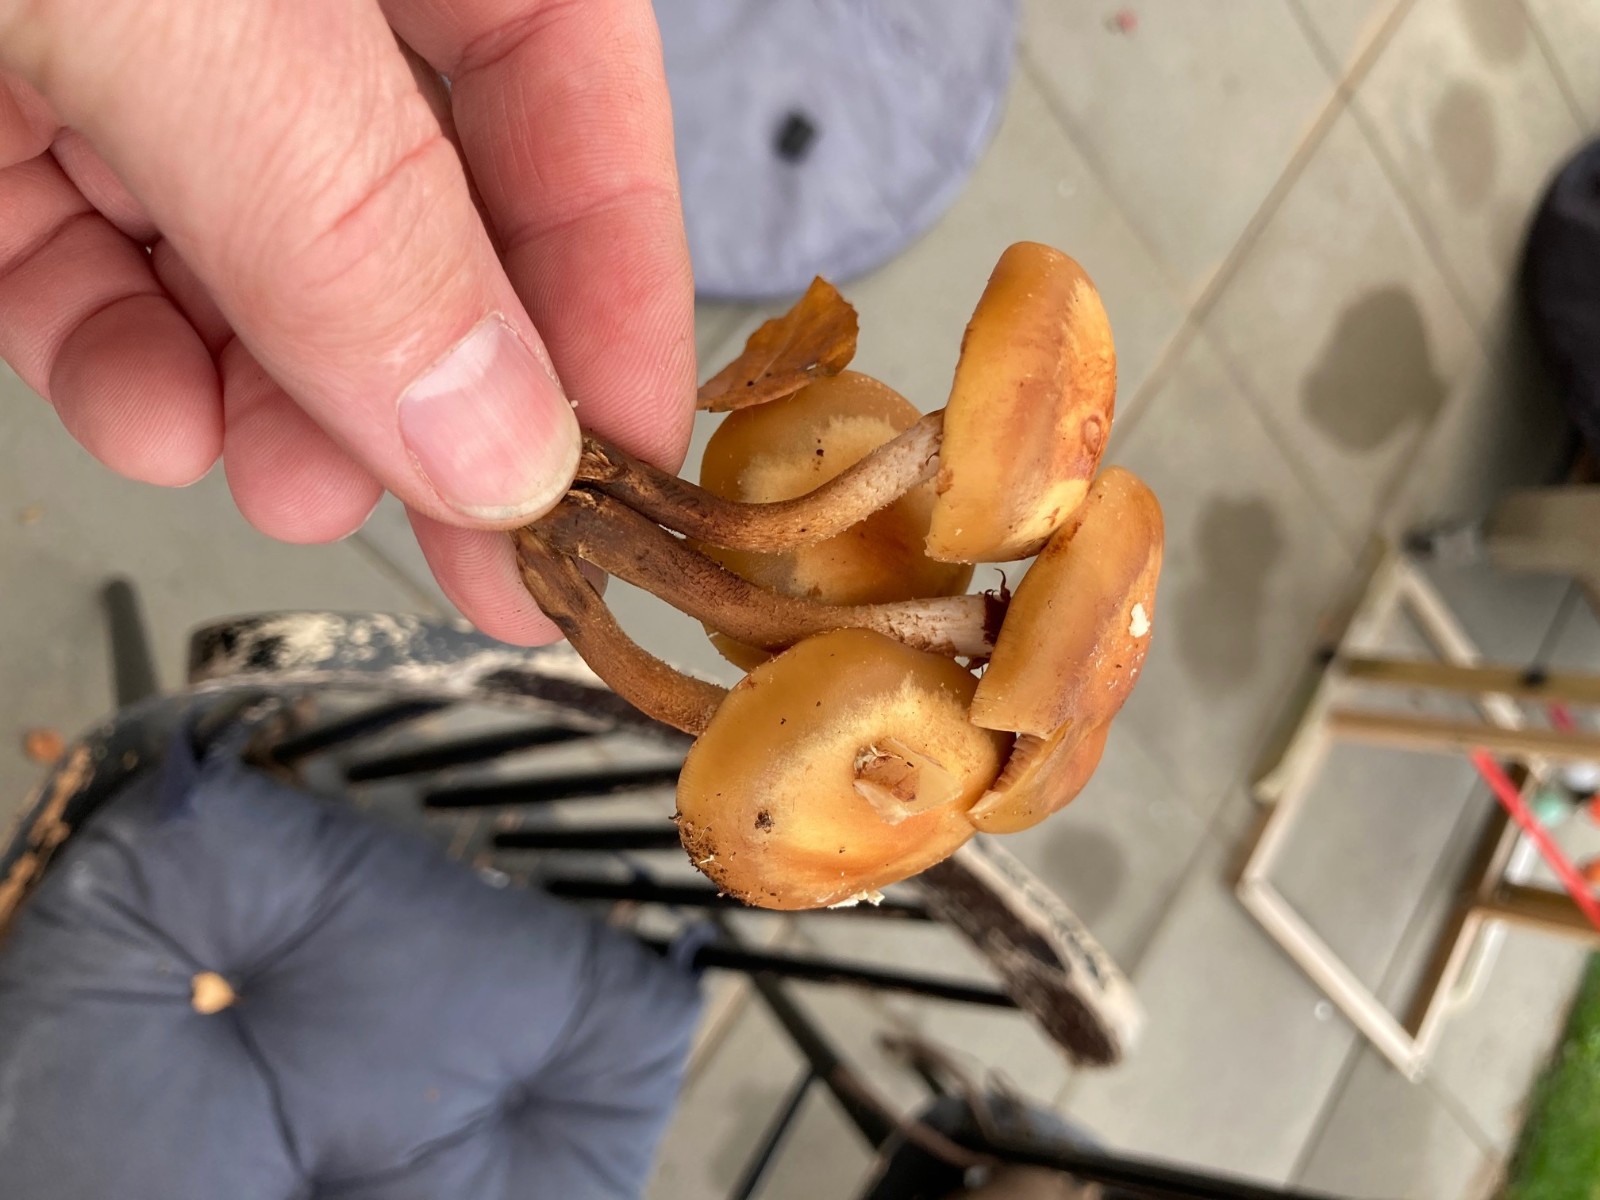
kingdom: Fungi
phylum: Basidiomycota
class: Agaricomycetes
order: Agaricales
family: Strophariaceae
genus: Kuehneromyces
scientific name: Kuehneromyces mutabilis
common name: foranderlig skælhat
